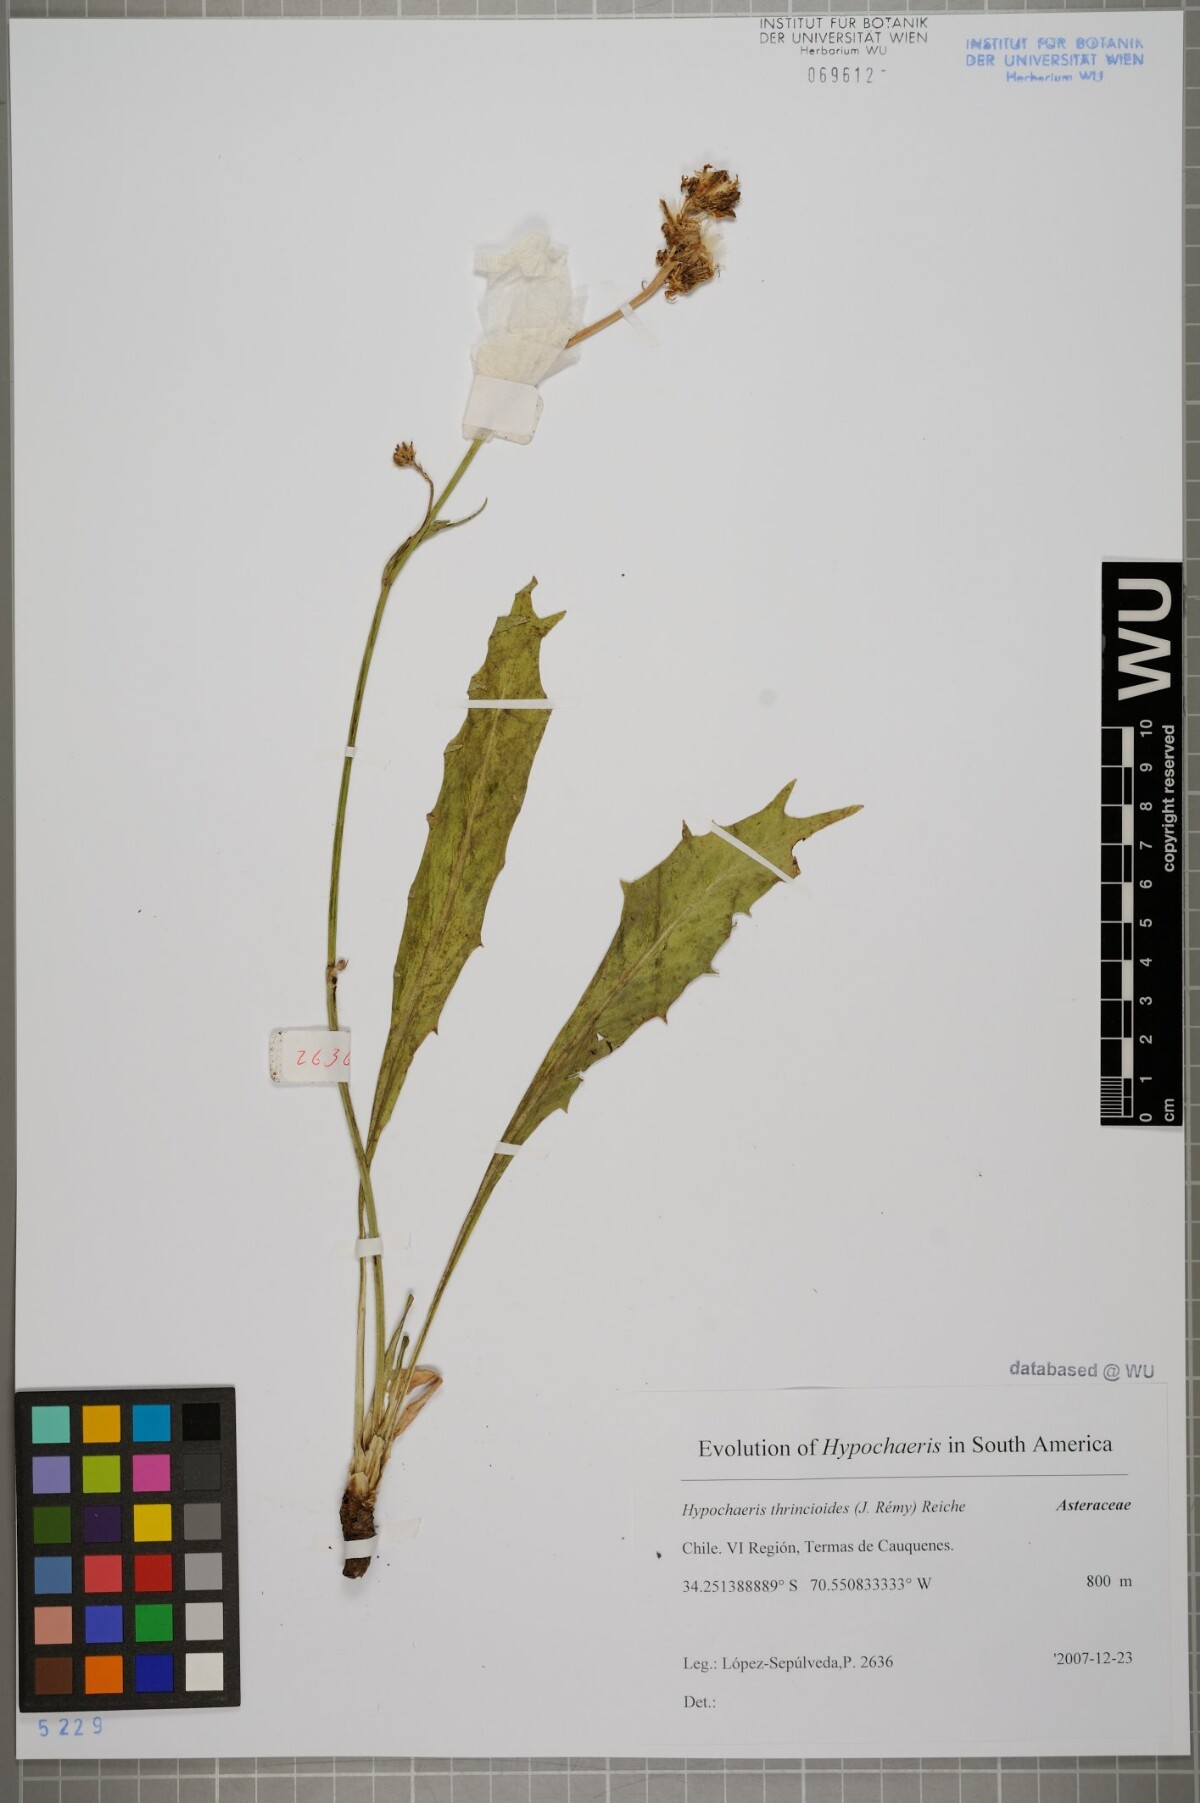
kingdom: Plantae
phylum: Tracheophyta
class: Magnoliopsida
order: Asterales
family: Asteraceae
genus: Hypochaeris
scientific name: Hypochaeris apargioides
